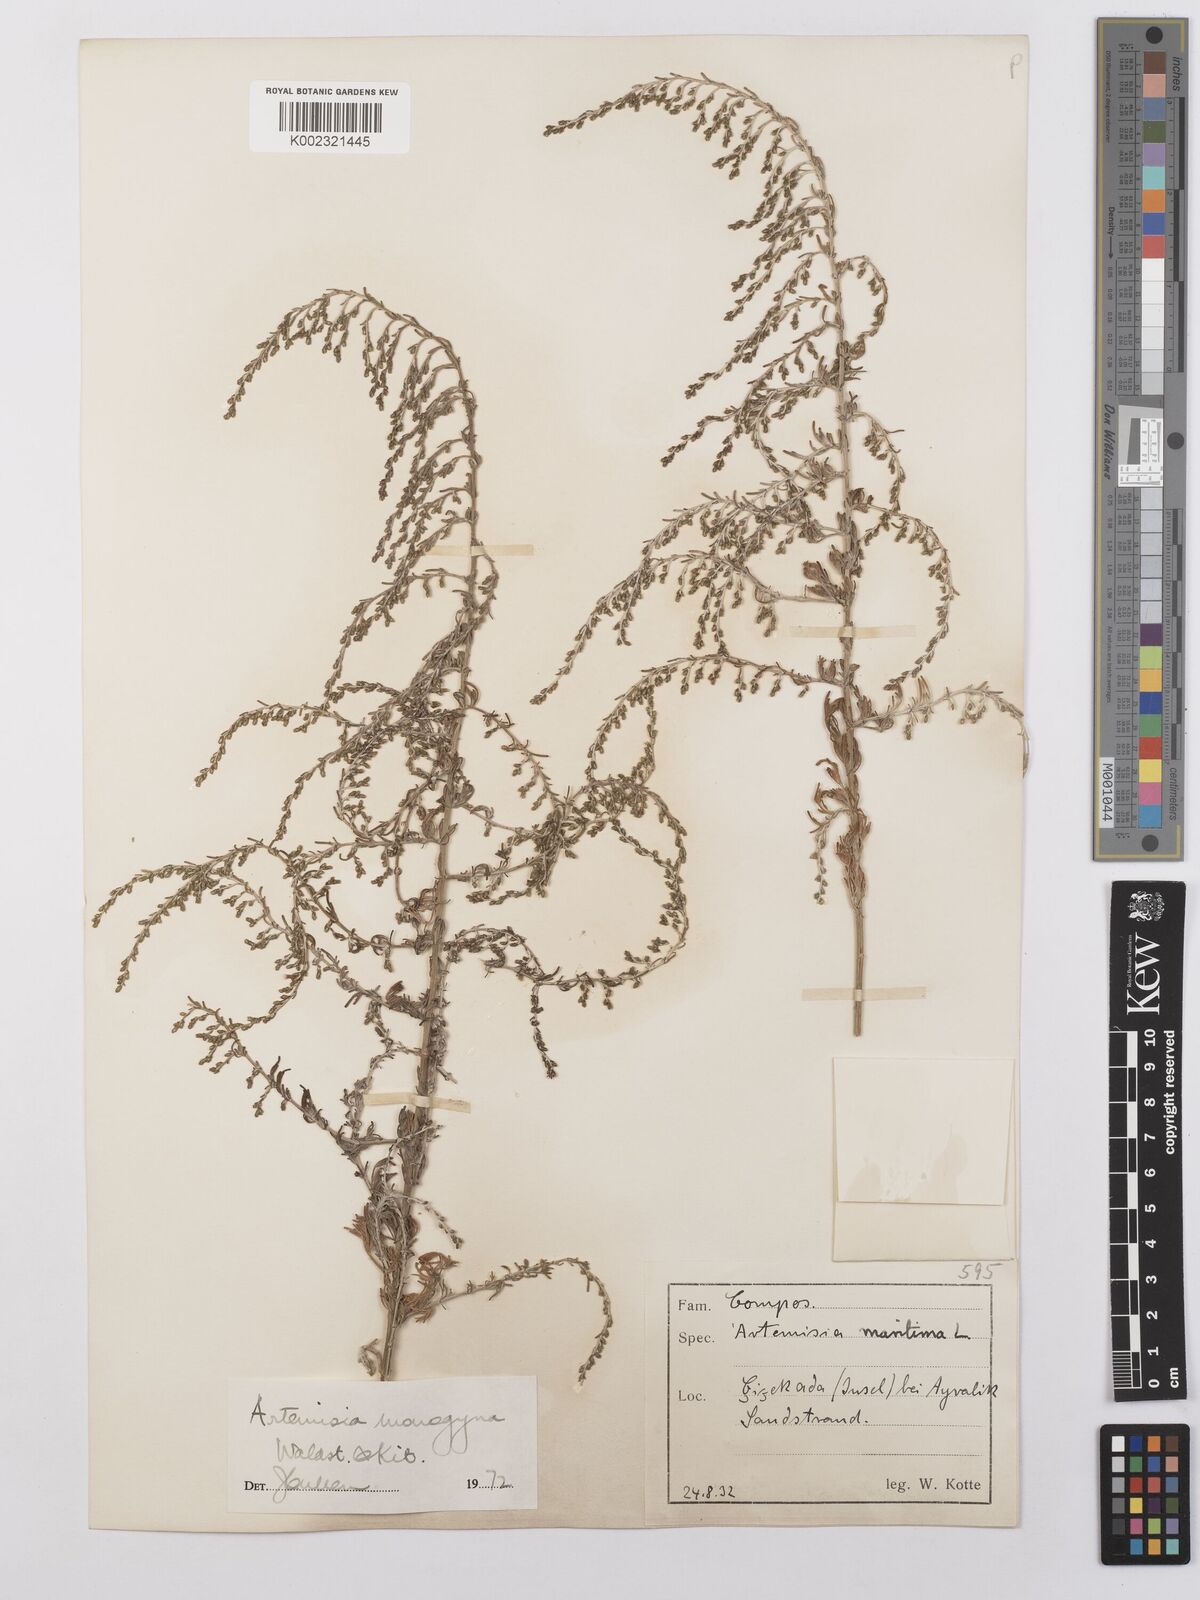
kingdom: Plantae
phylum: Tracheophyta
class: Magnoliopsida
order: Asterales
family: Asteraceae
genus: Artemisia
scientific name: Artemisia santonicum
